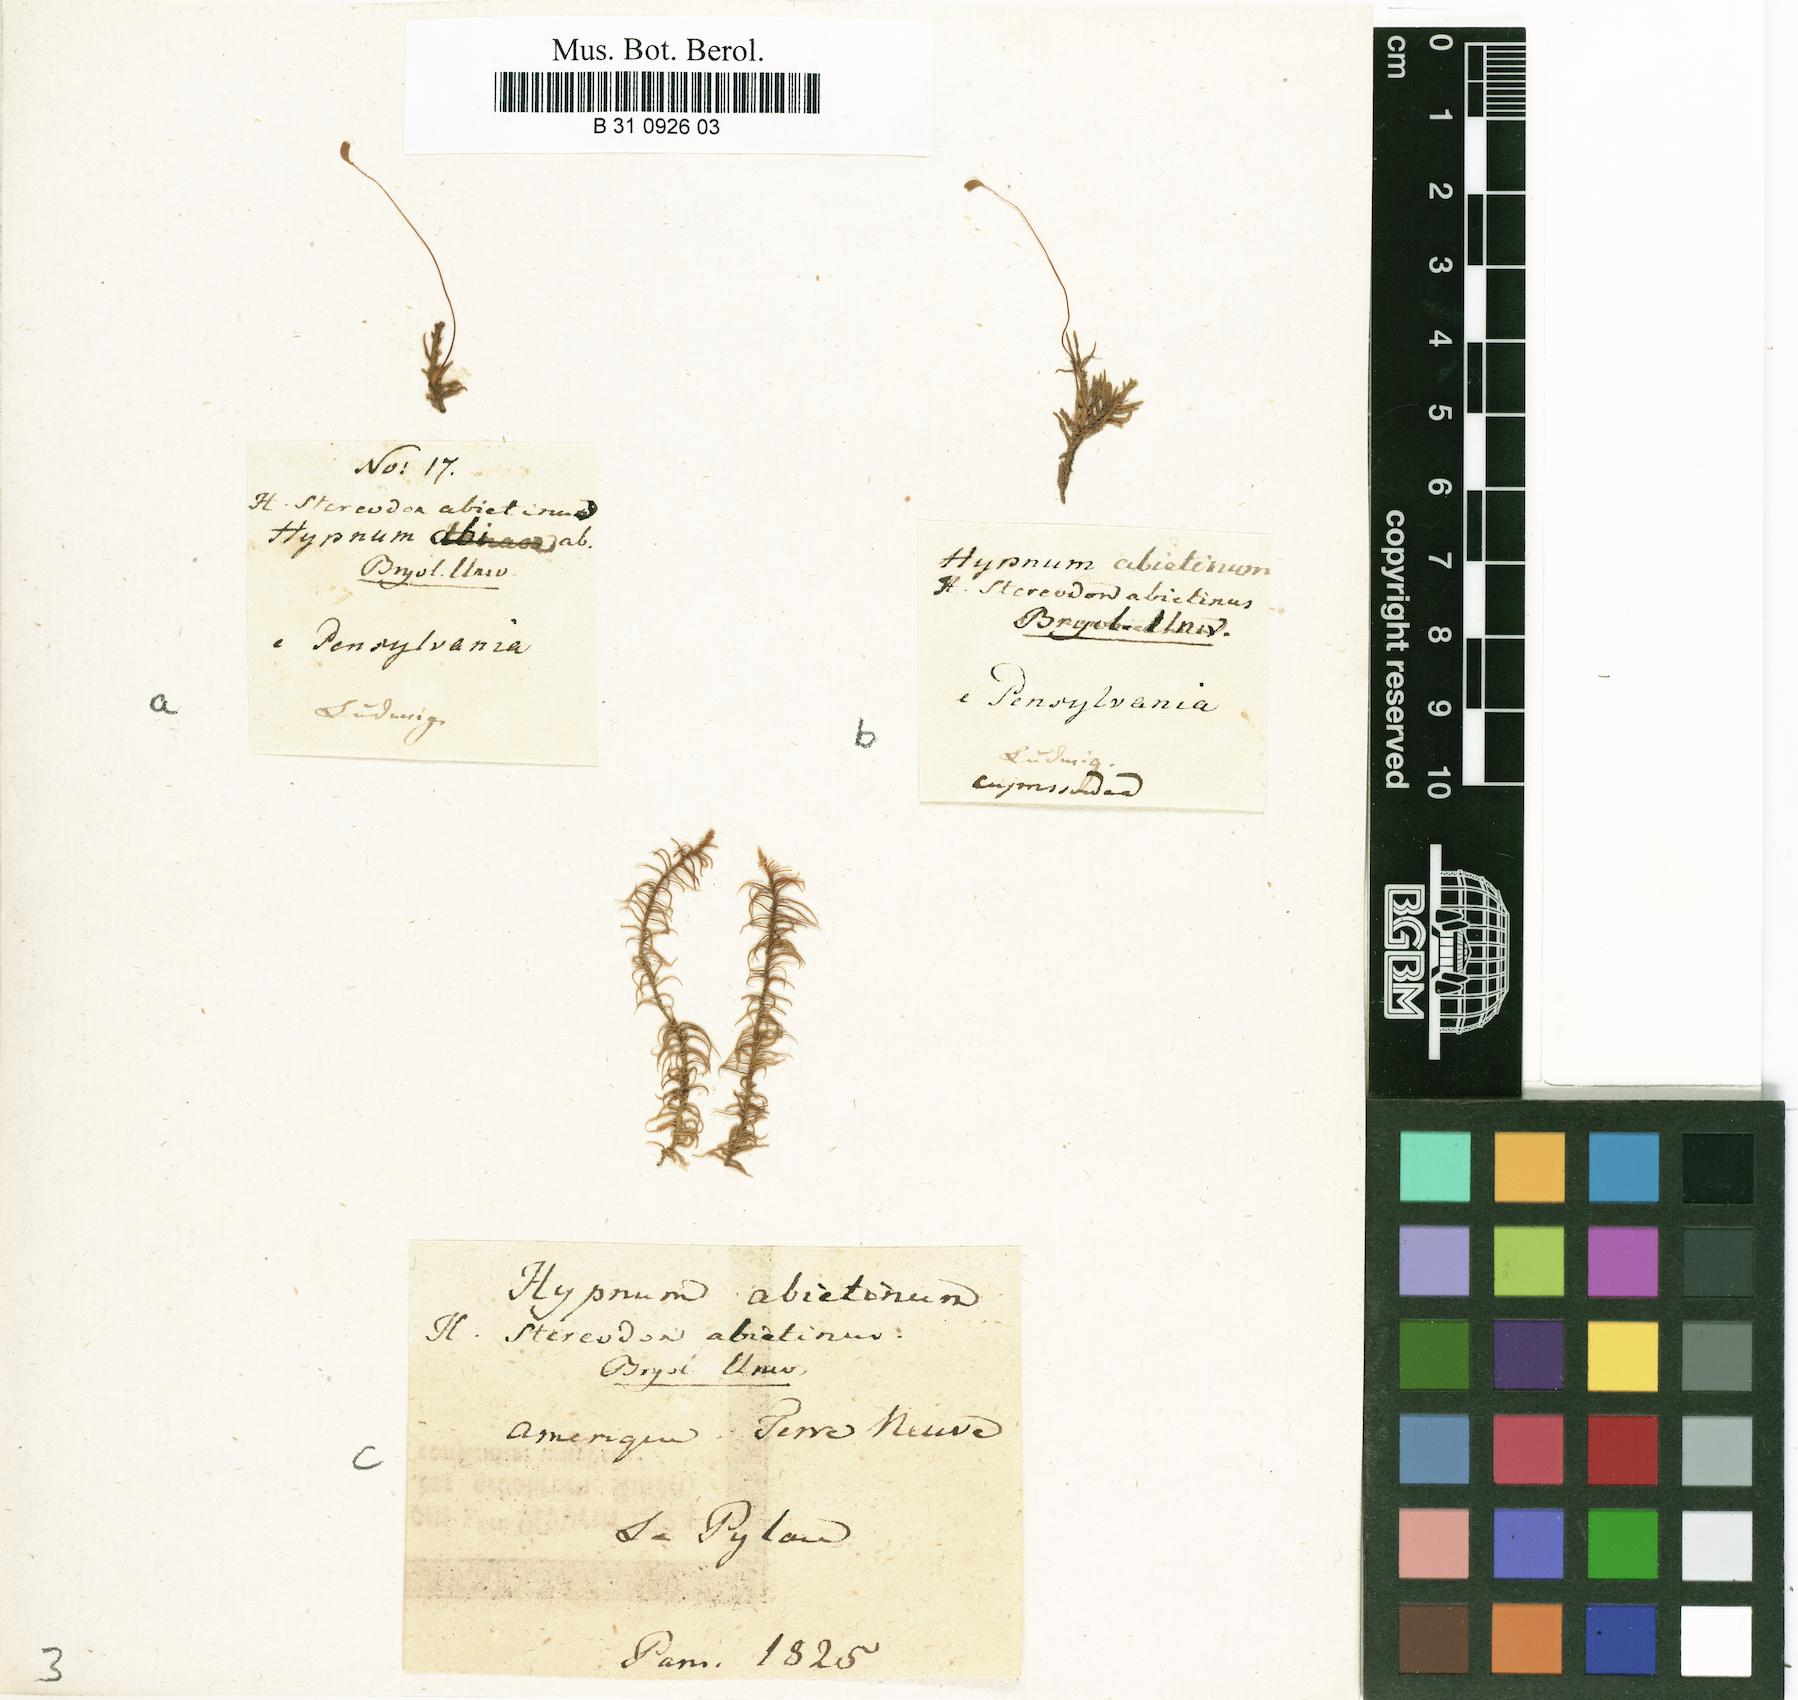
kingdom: Plantae
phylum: Bryophyta
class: Bryopsida
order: Hypnales
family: Thuidiaceae
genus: Abietinella
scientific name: Abietinella abietina
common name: Wiry fern moss
